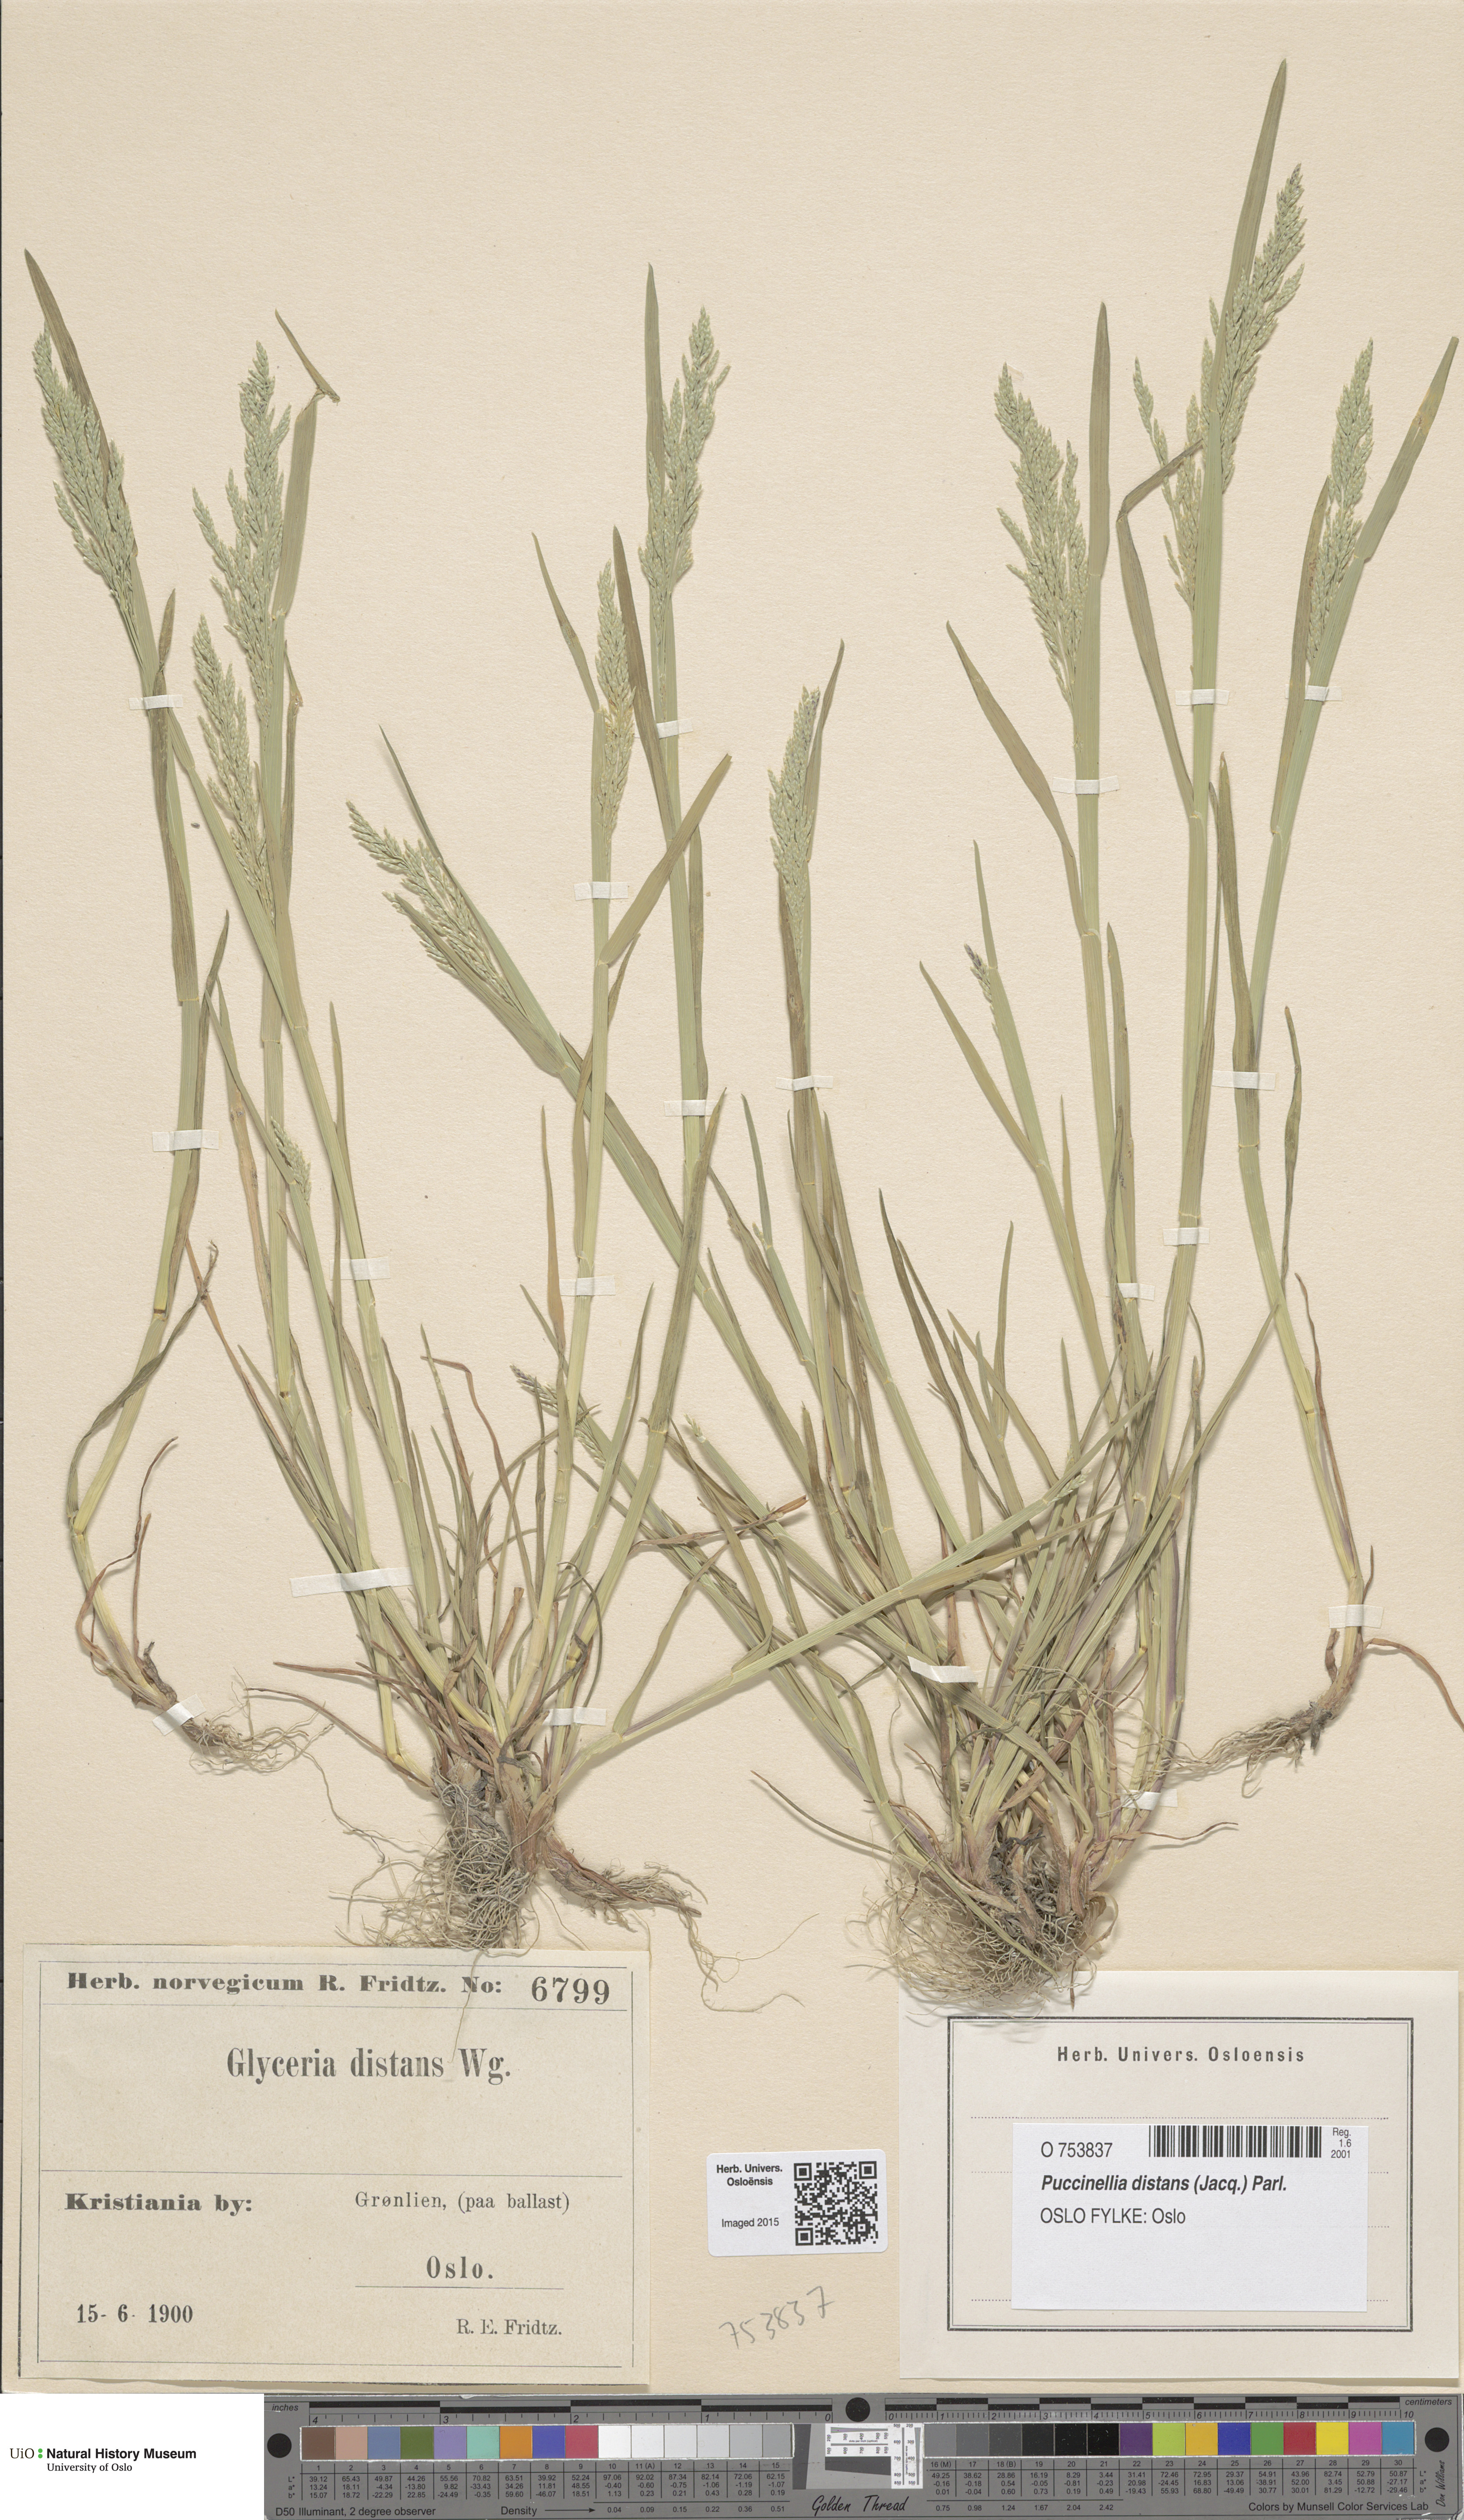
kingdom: Plantae
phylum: Tracheophyta
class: Liliopsida
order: Poales
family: Poaceae
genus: Puccinellia
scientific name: Puccinellia distans
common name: Weeping alkaligrass
